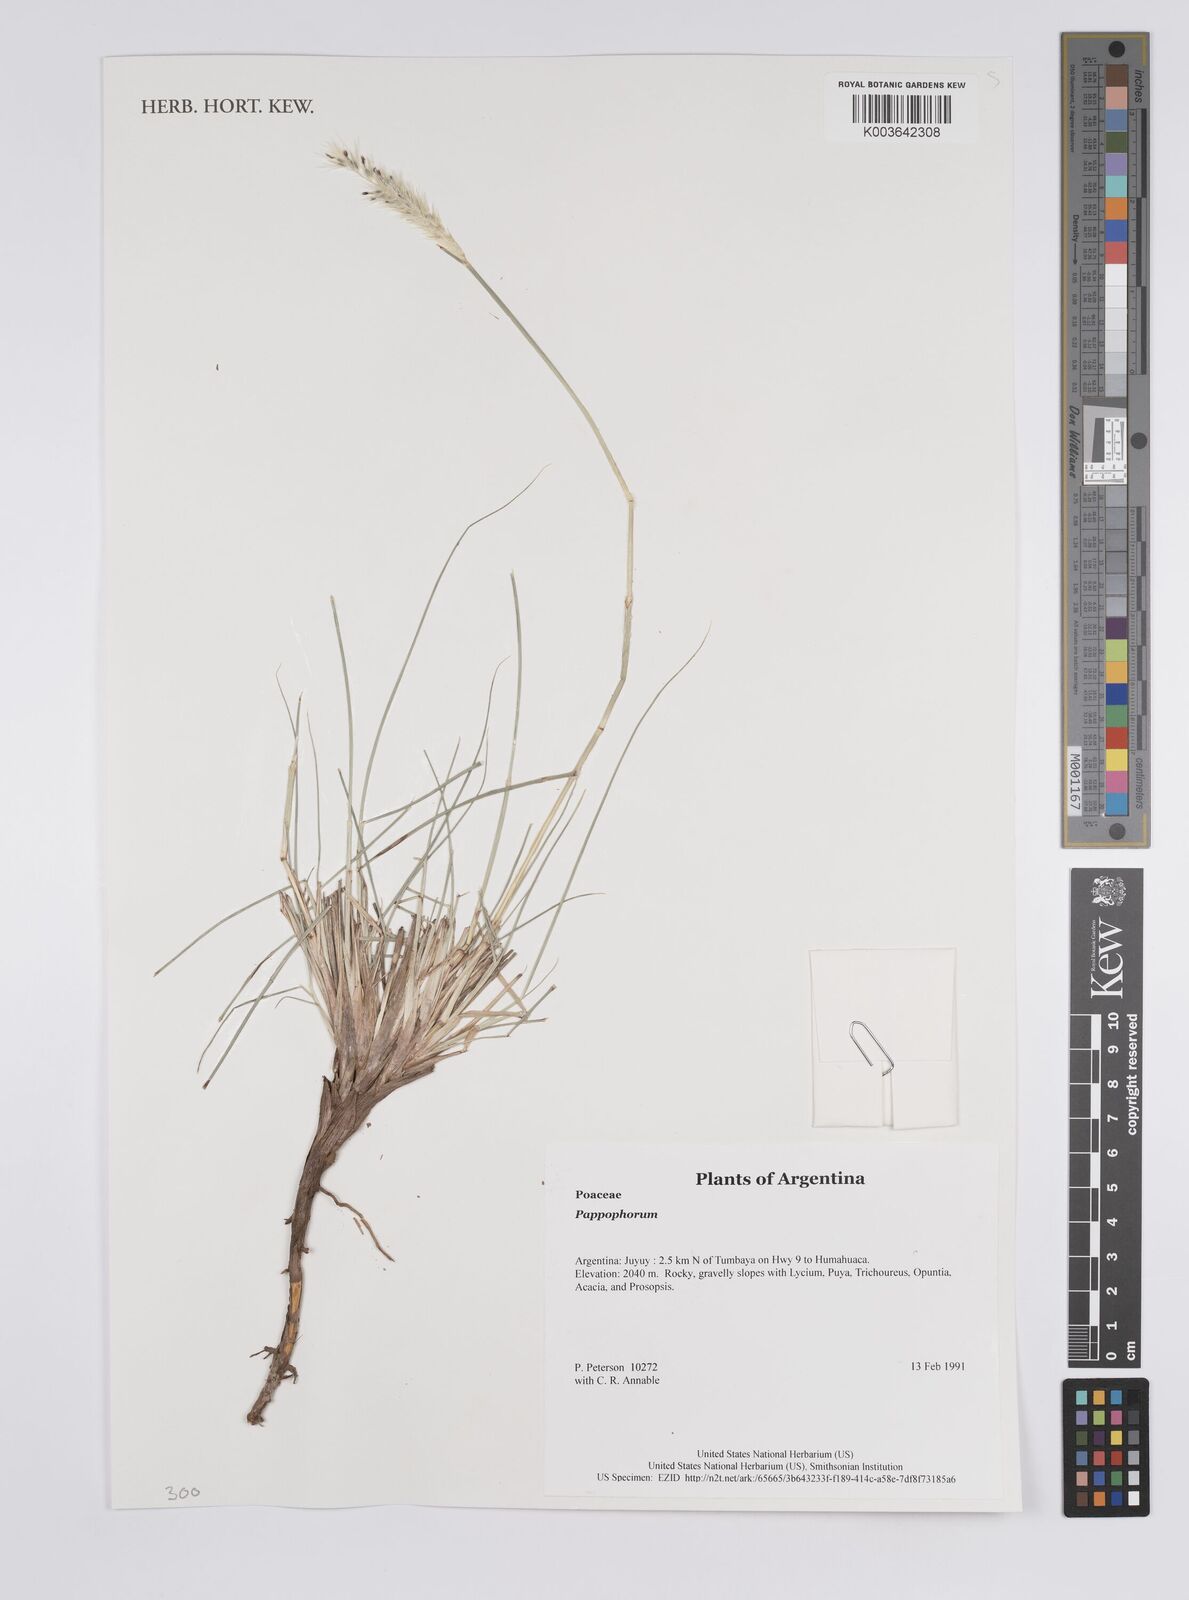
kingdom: Plantae
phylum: Tracheophyta
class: Liliopsida
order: Poales
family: Poaceae
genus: Pappophorum
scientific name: Pappophorum
